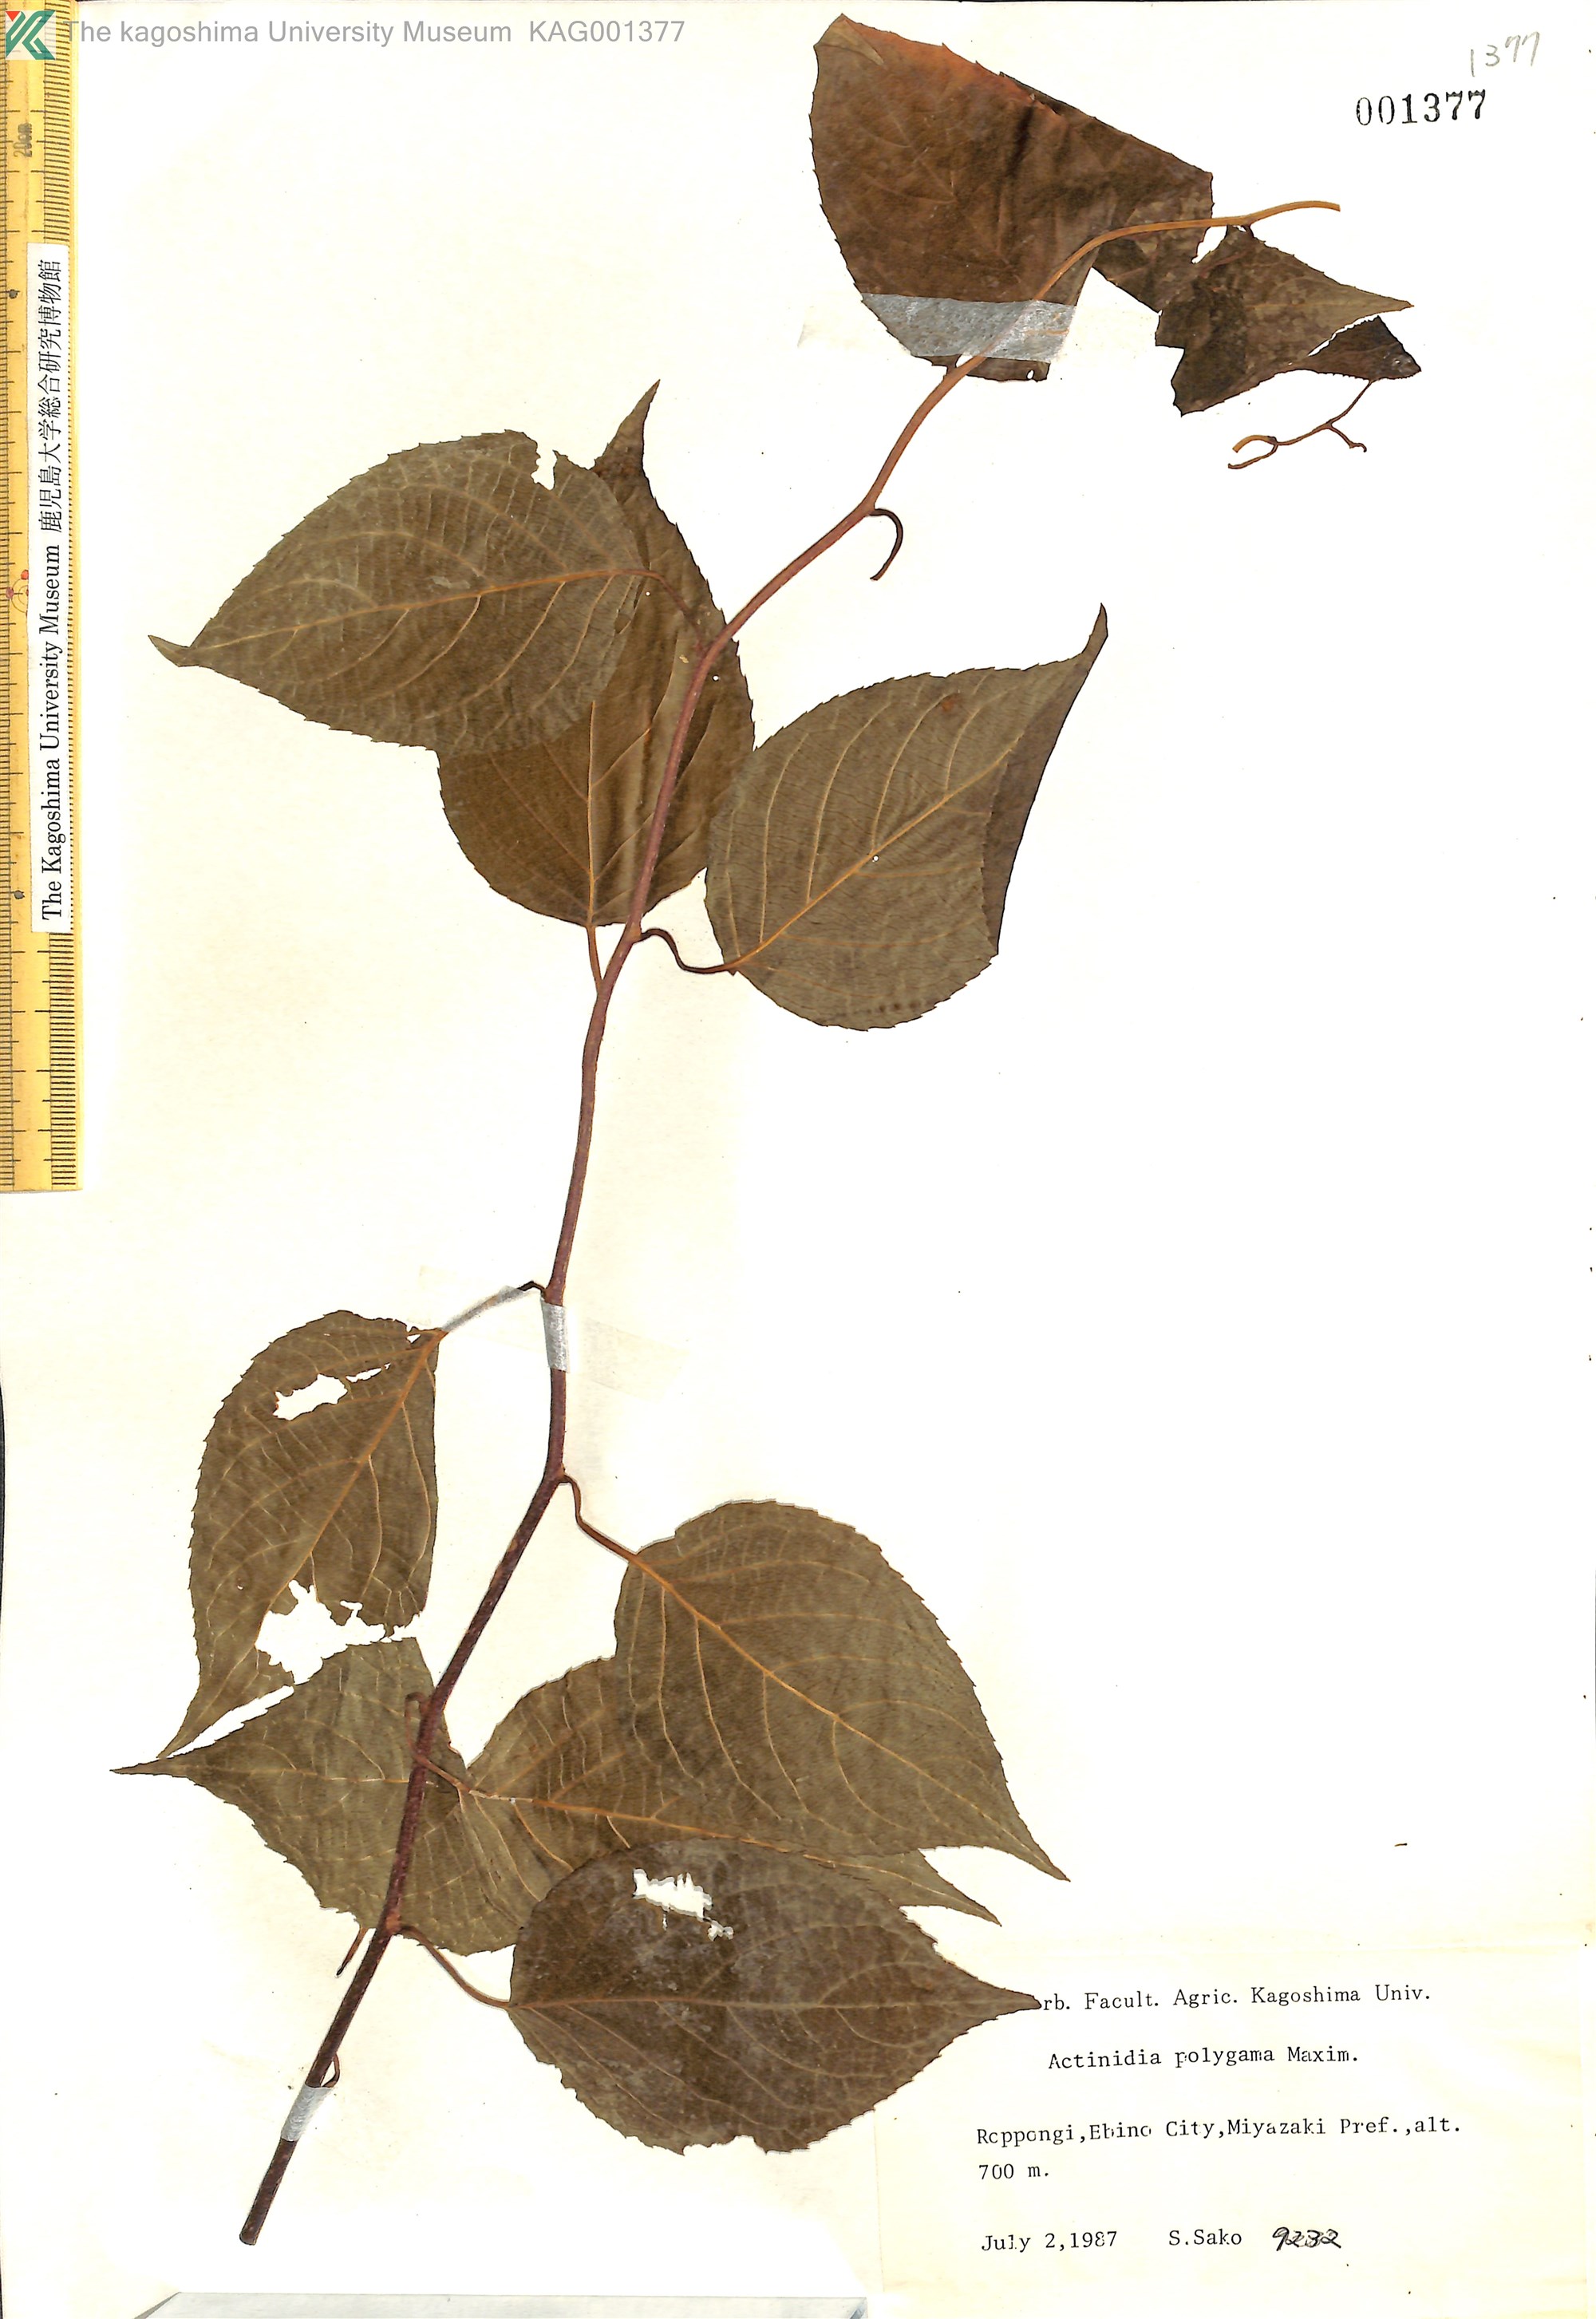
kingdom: Plantae
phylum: Tracheophyta
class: Magnoliopsida
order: Ericales
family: Actinidiaceae
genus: Actinidia
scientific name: Actinidia polygama
